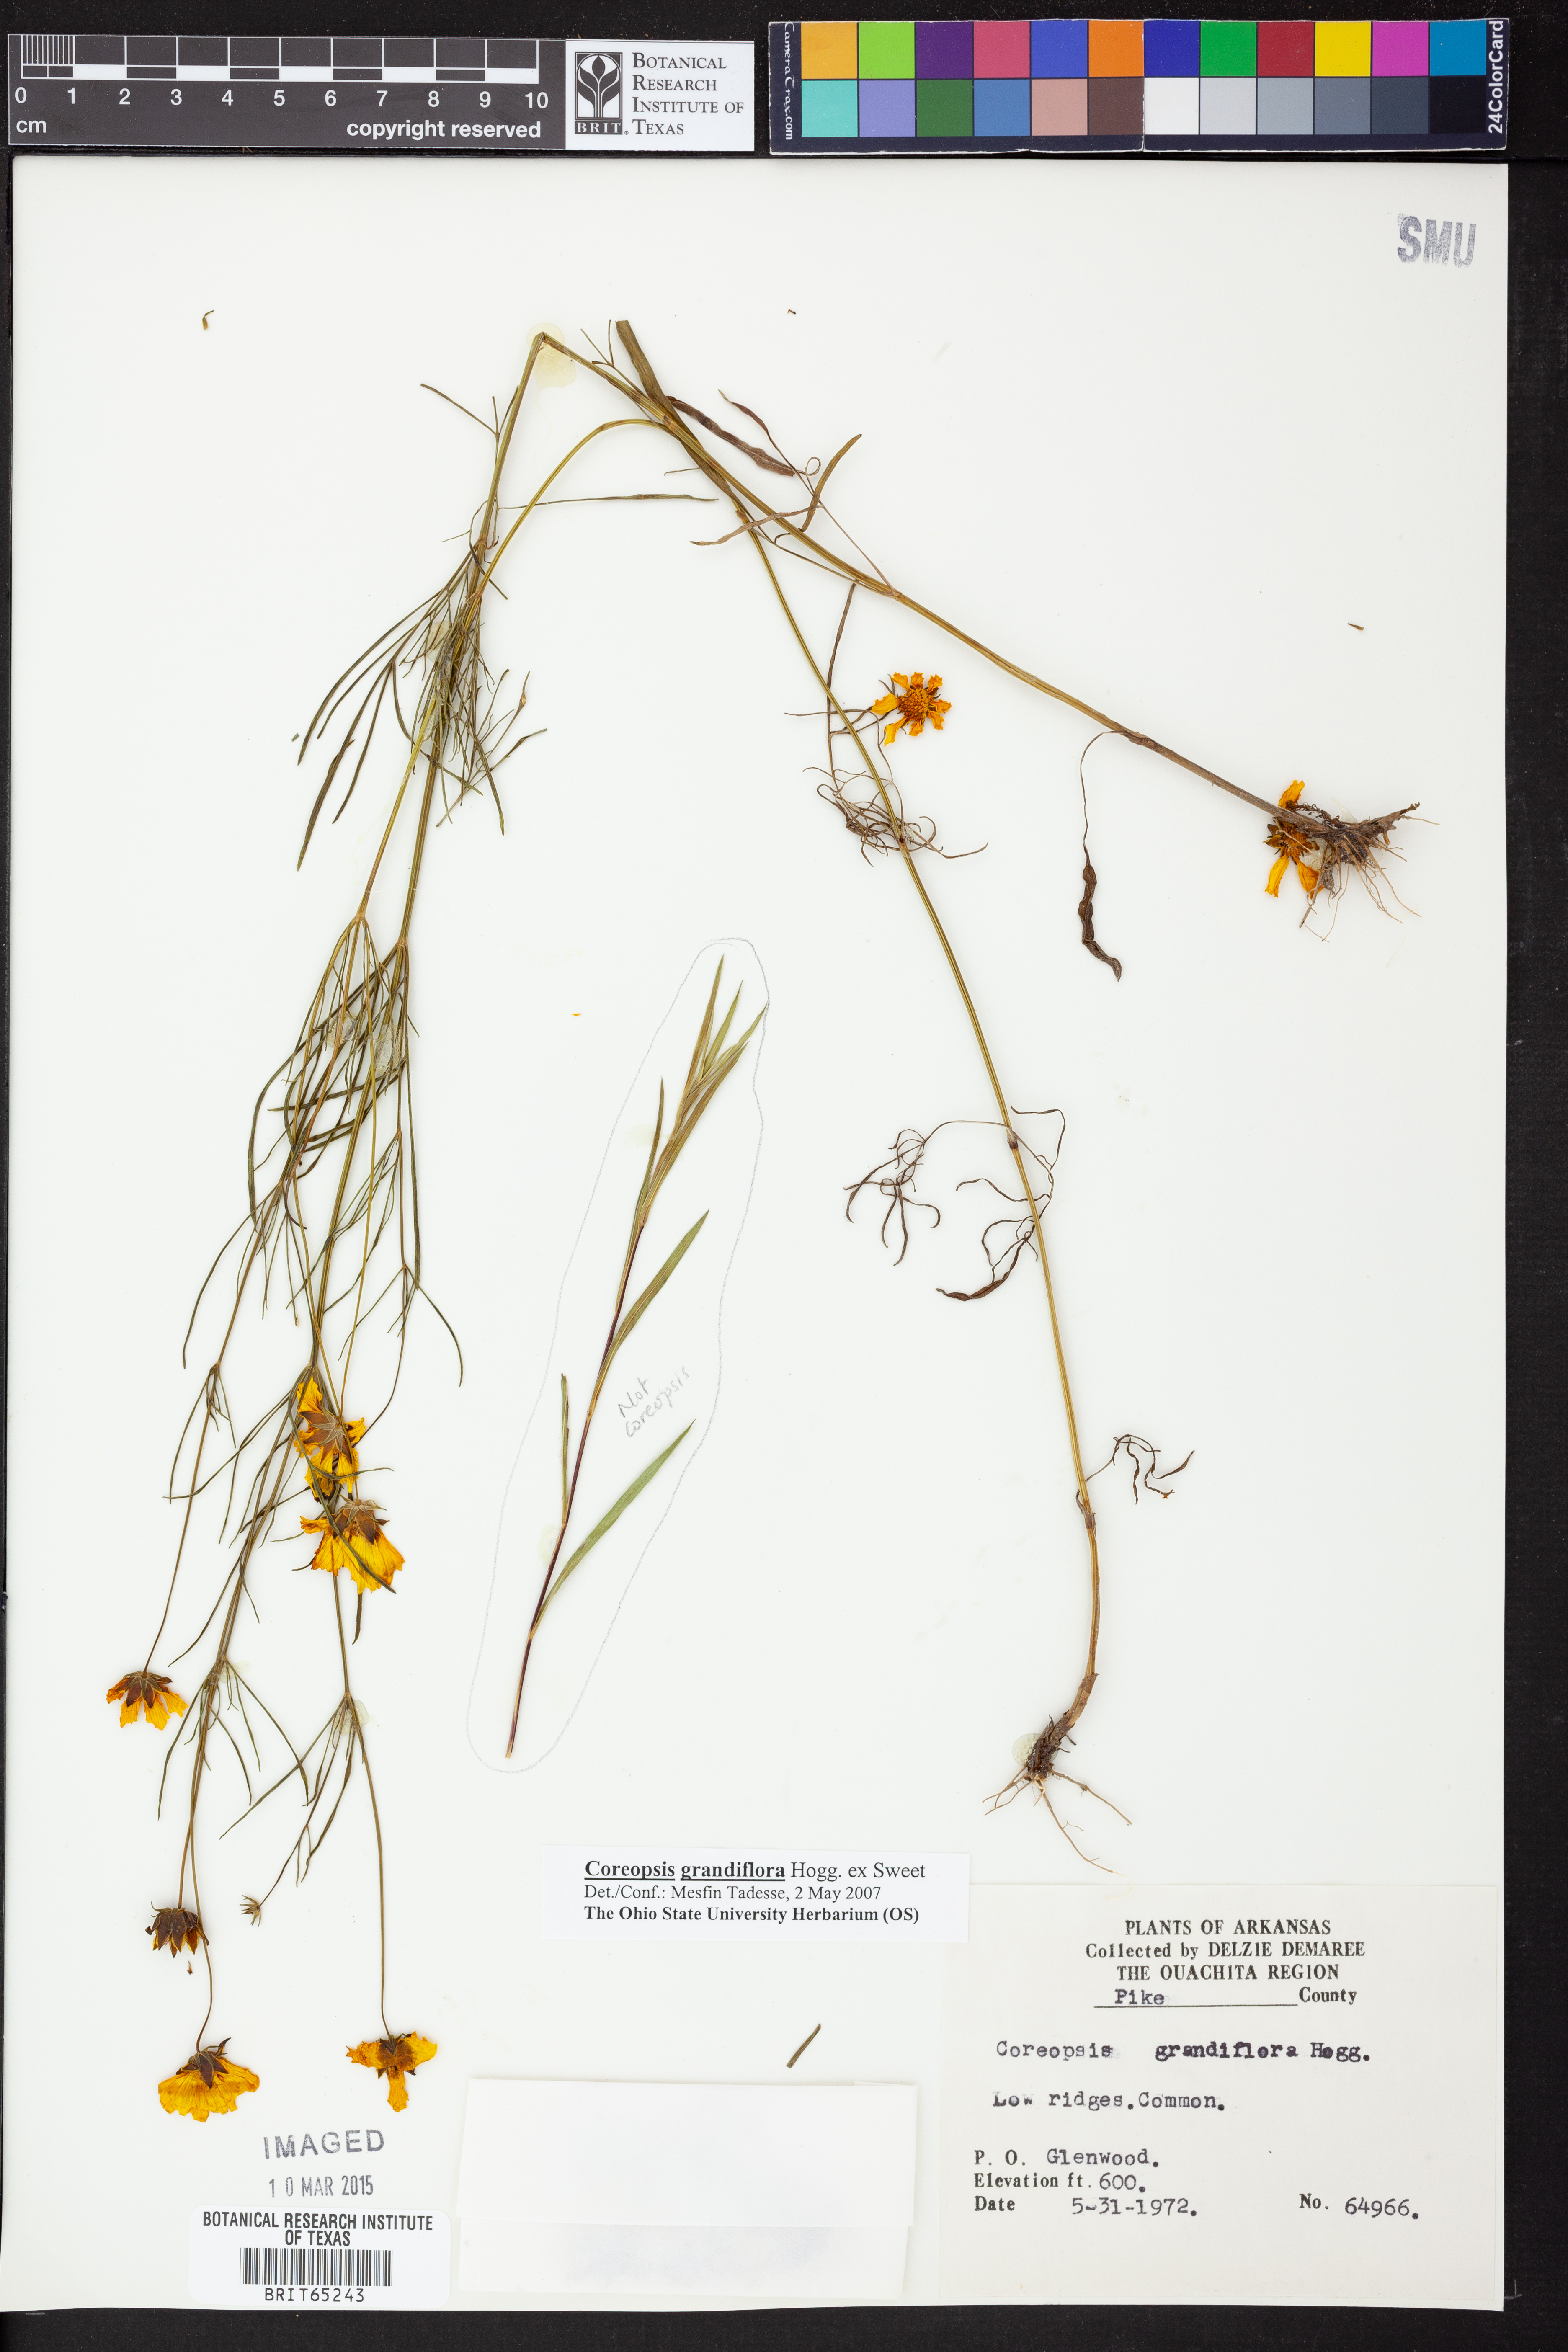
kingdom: Plantae
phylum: Tracheophyta
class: Magnoliopsida
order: Asterales
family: Asteraceae
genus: Coreopsis
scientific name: Coreopsis grandiflora
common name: Large-flowered tickseed
